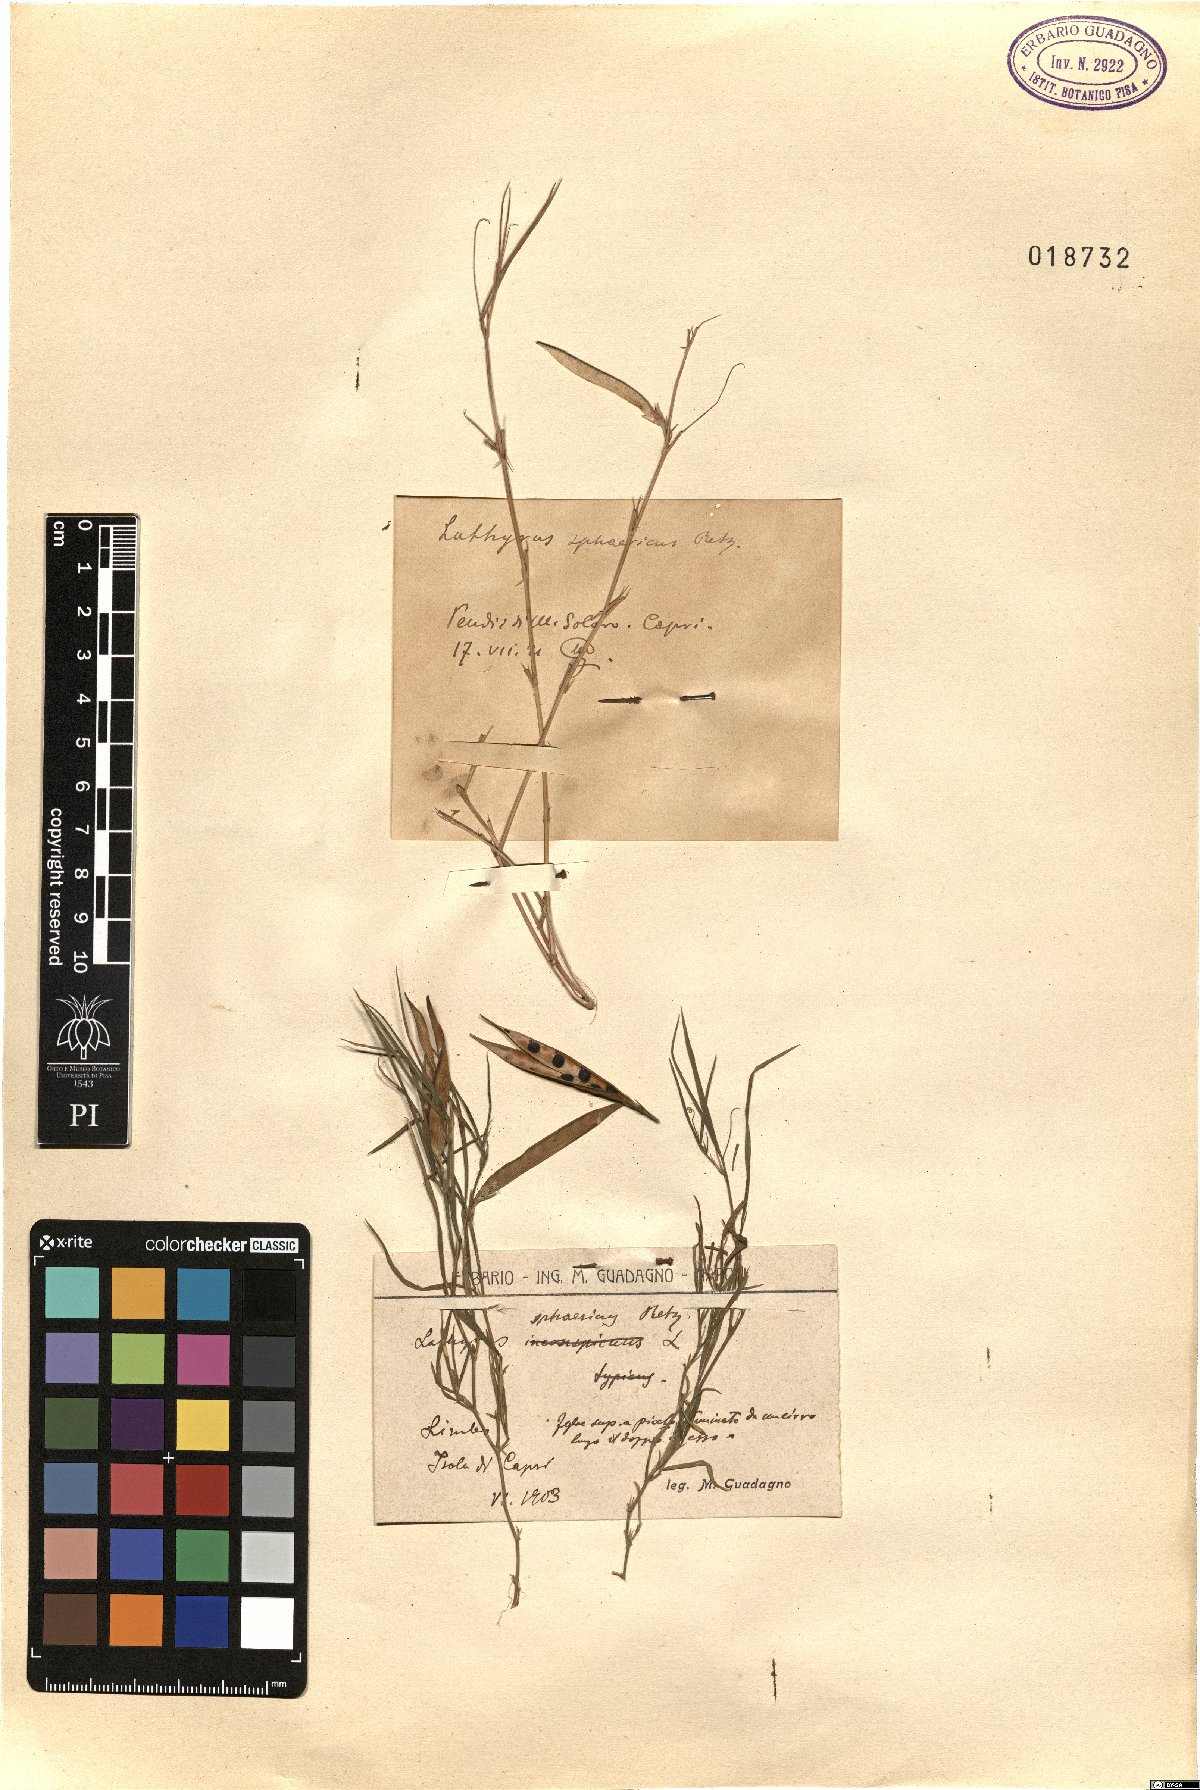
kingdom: Plantae
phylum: Tracheophyta
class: Magnoliopsida
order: Fabales
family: Fabaceae
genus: Lathyrus
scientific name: Lathyrus sphaericus
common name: Grass pea
